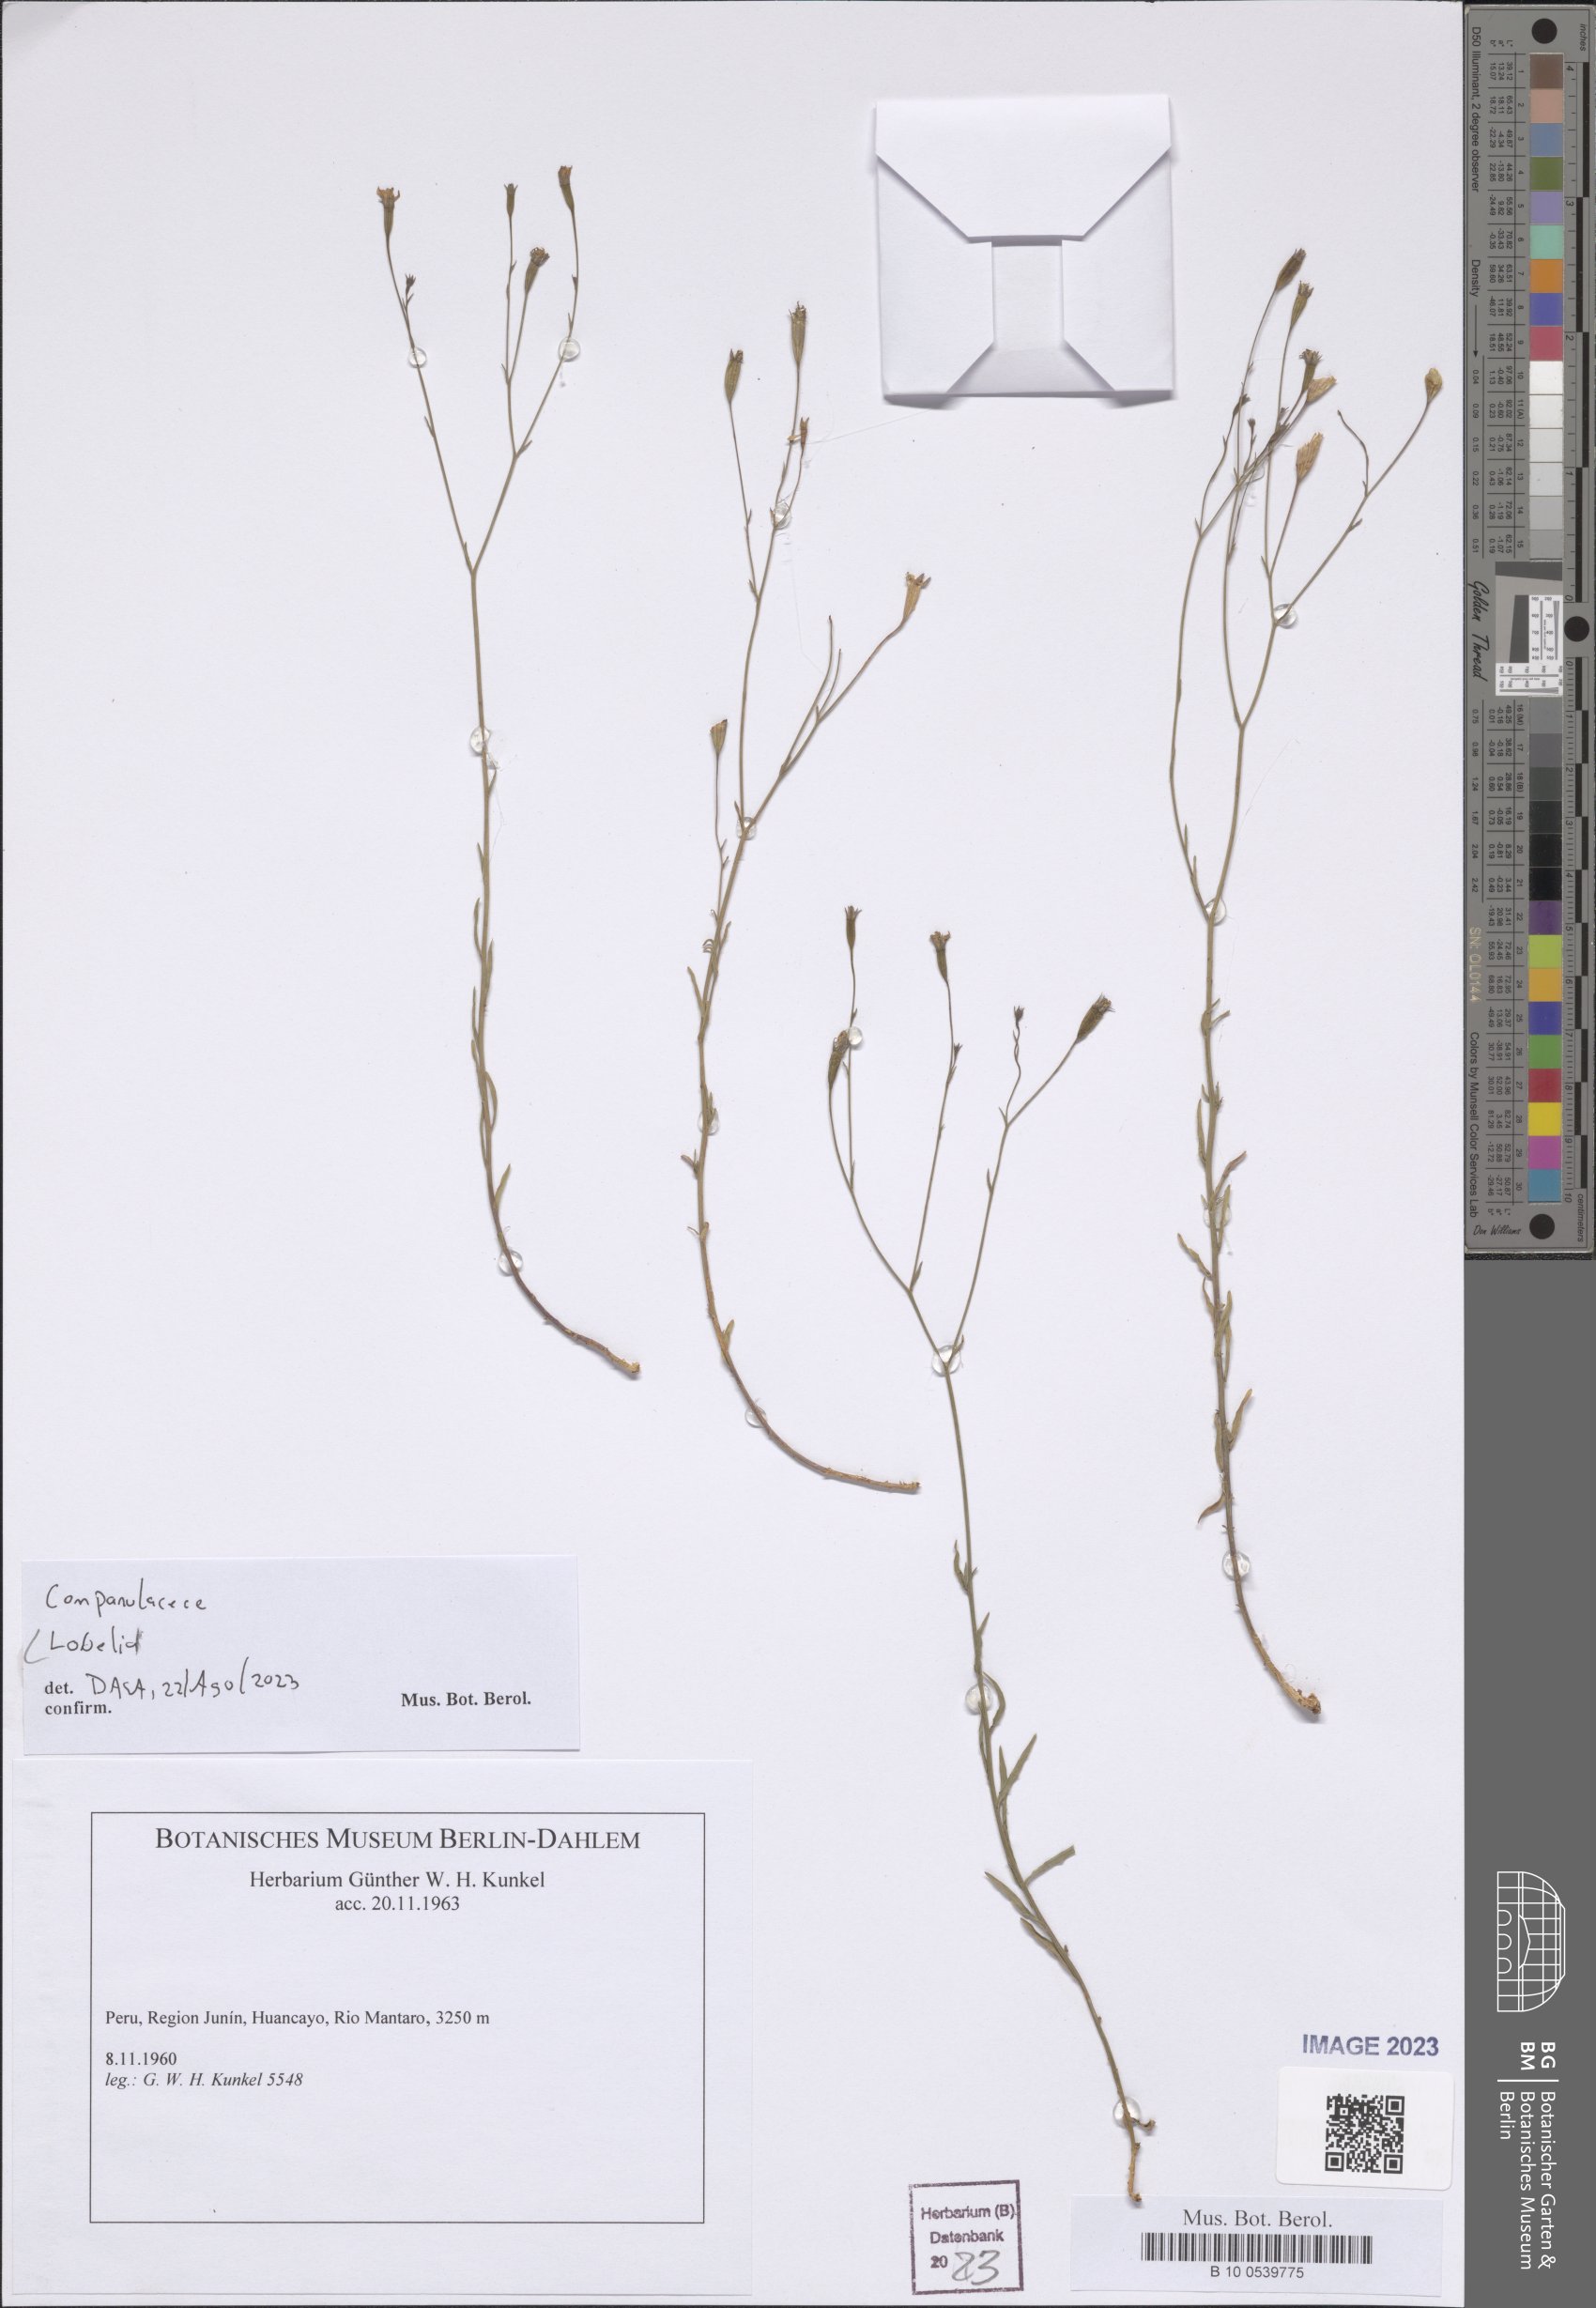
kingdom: Plantae
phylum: Tracheophyta
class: Magnoliopsida
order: Asterales
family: Campanulaceae
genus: Lobelia
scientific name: Lobelia
